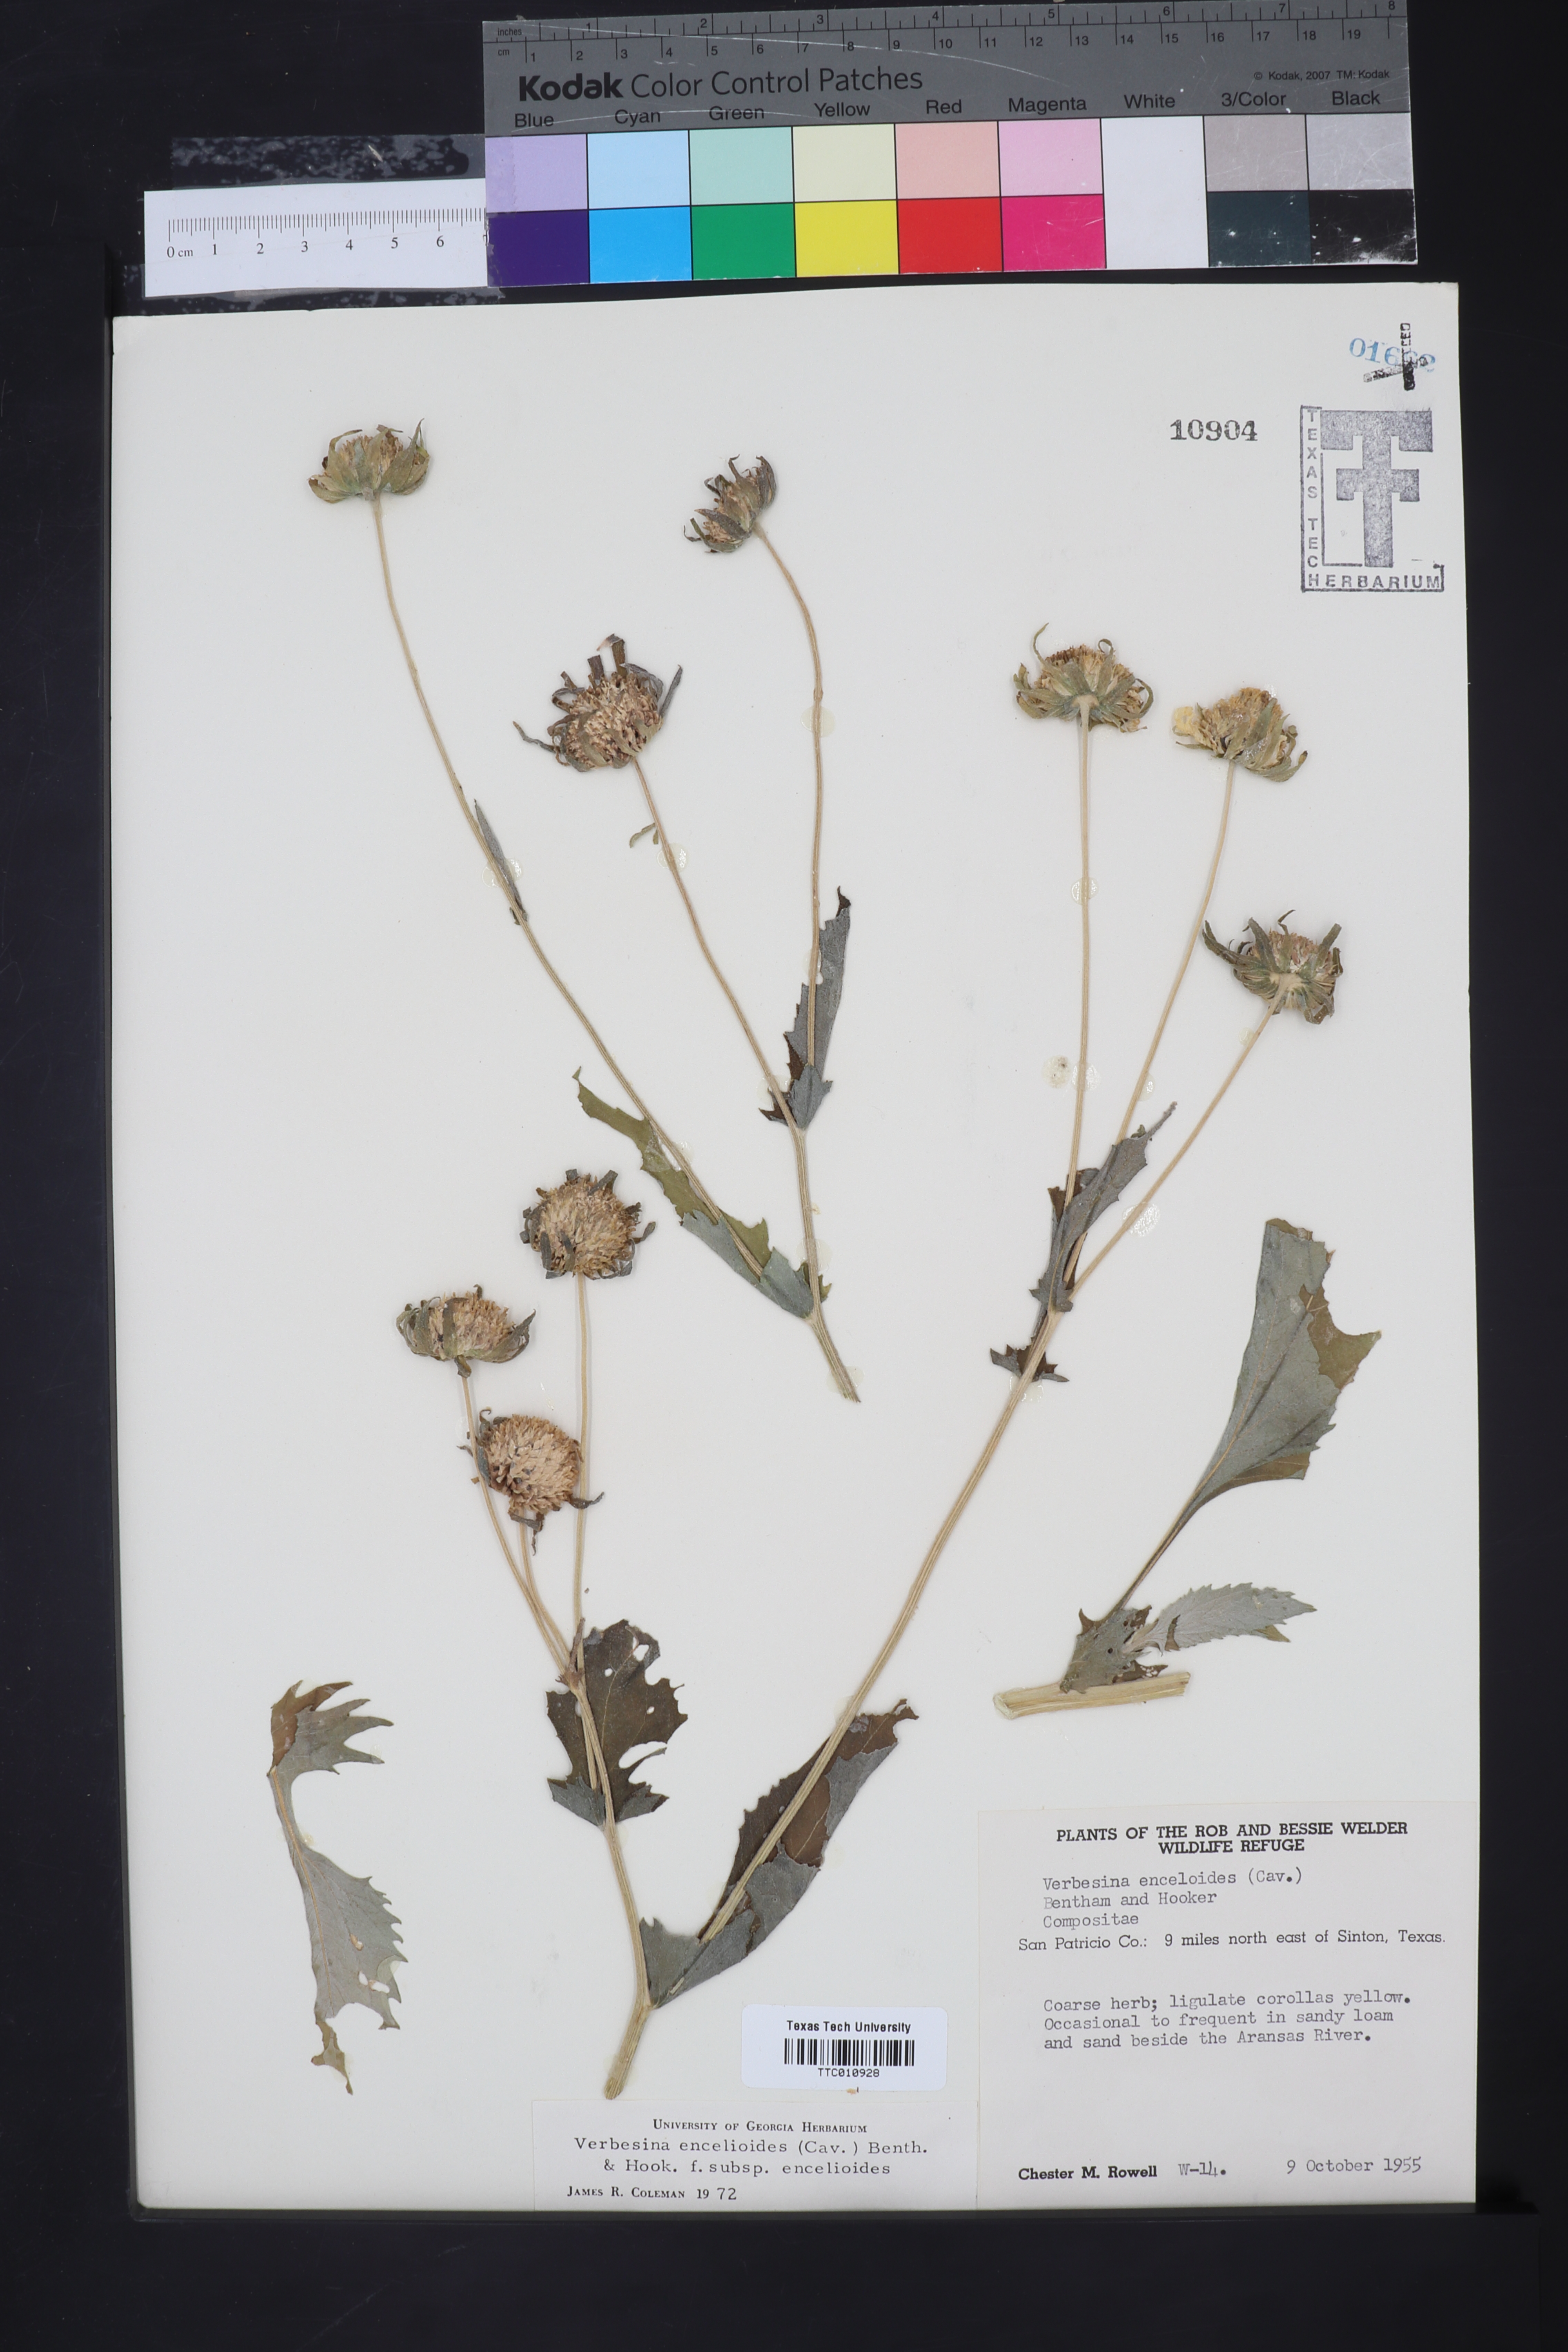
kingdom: Plantae
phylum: Tracheophyta
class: Magnoliopsida
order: Asterales
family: Asteraceae
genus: Verbesina
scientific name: Verbesina encelioides
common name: Golden crownbeard
